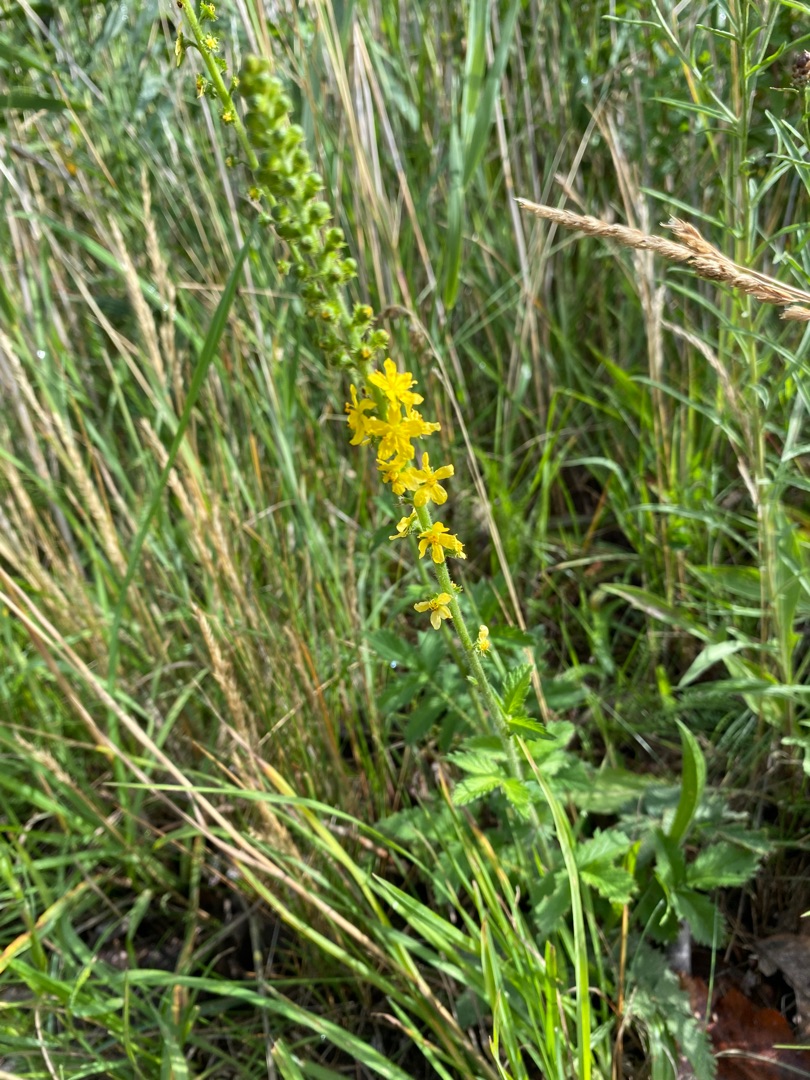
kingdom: Plantae
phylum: Tracheophyta
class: Magnoliopsida
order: Rosales
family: Rosaceae
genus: Agrimonia
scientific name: Agrimonia eupatoria
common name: Almindelig agermåne
